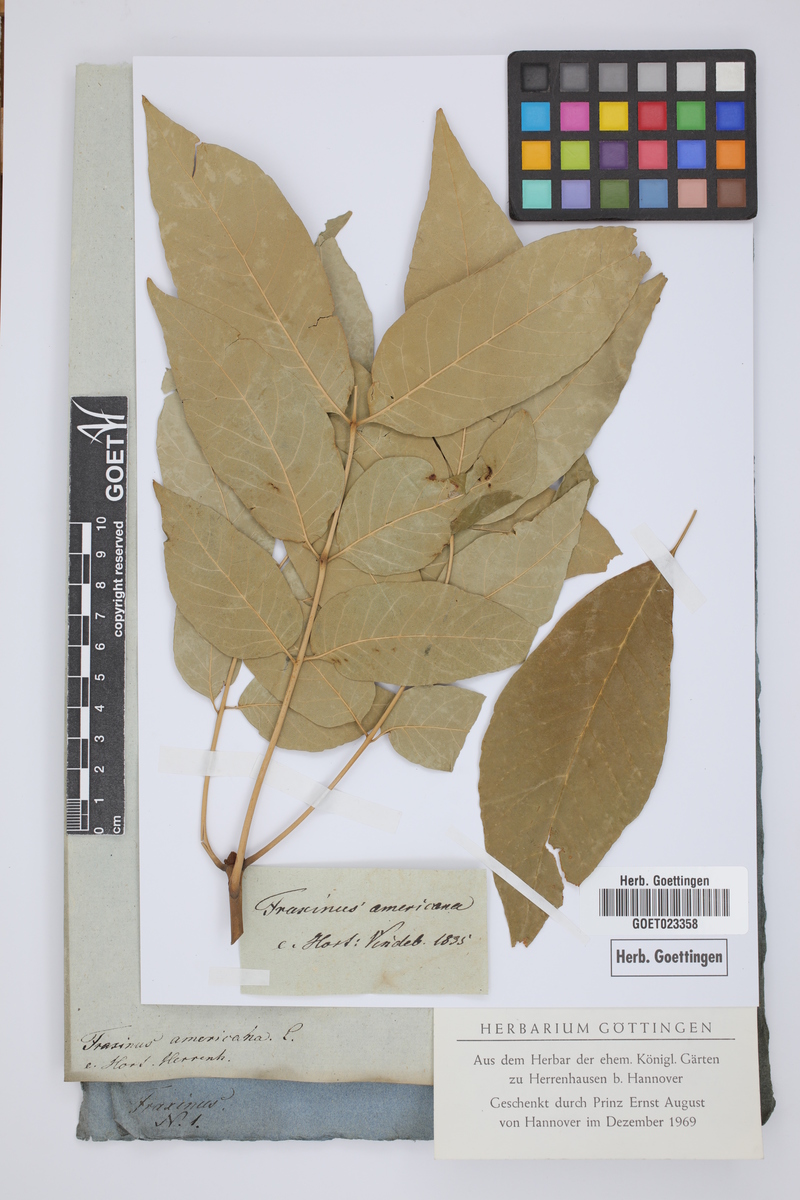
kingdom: Plantae
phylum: Tracheophyta
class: Magnoliopsida
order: Lamiales
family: Oleaceae
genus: Fraxinus
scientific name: Fraxinus americana
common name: White ash
